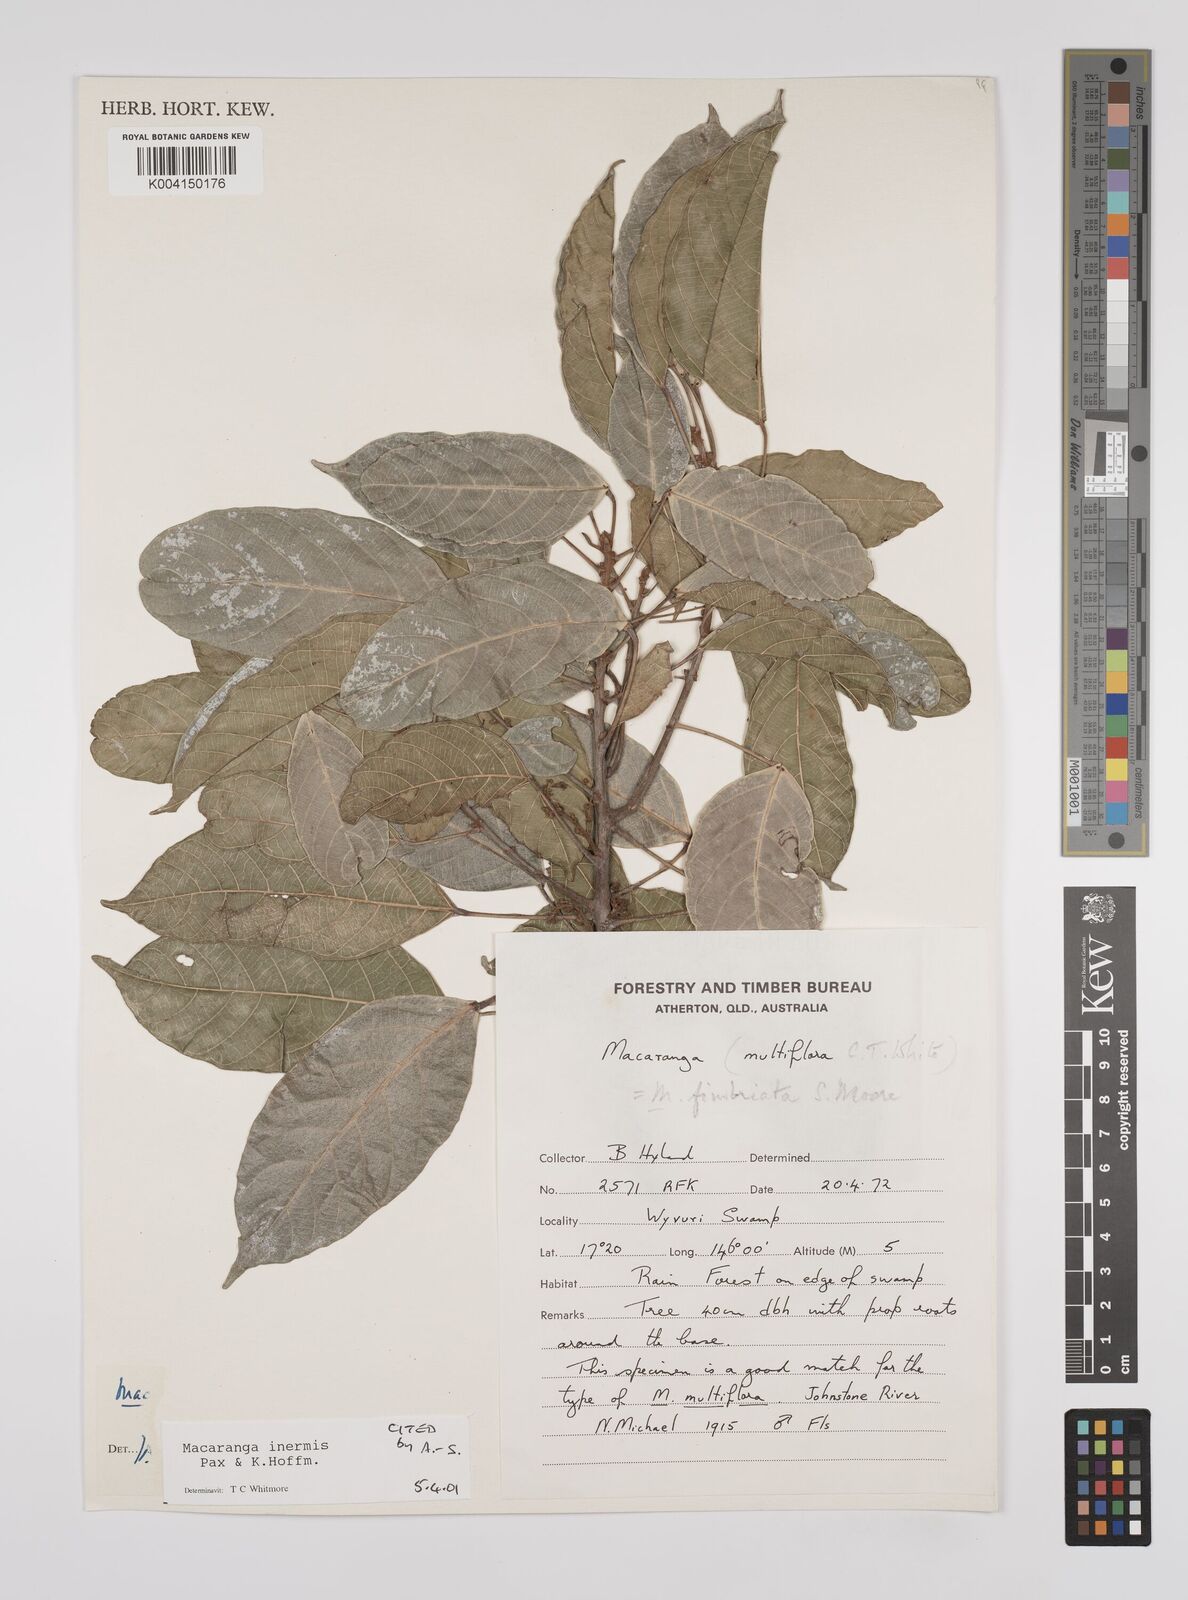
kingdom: Plantae
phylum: Tracheophyta
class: Magnoliopsida
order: Malpighiales
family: Euphorbiaceae
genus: Macaranga
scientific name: Macaranga inermis
